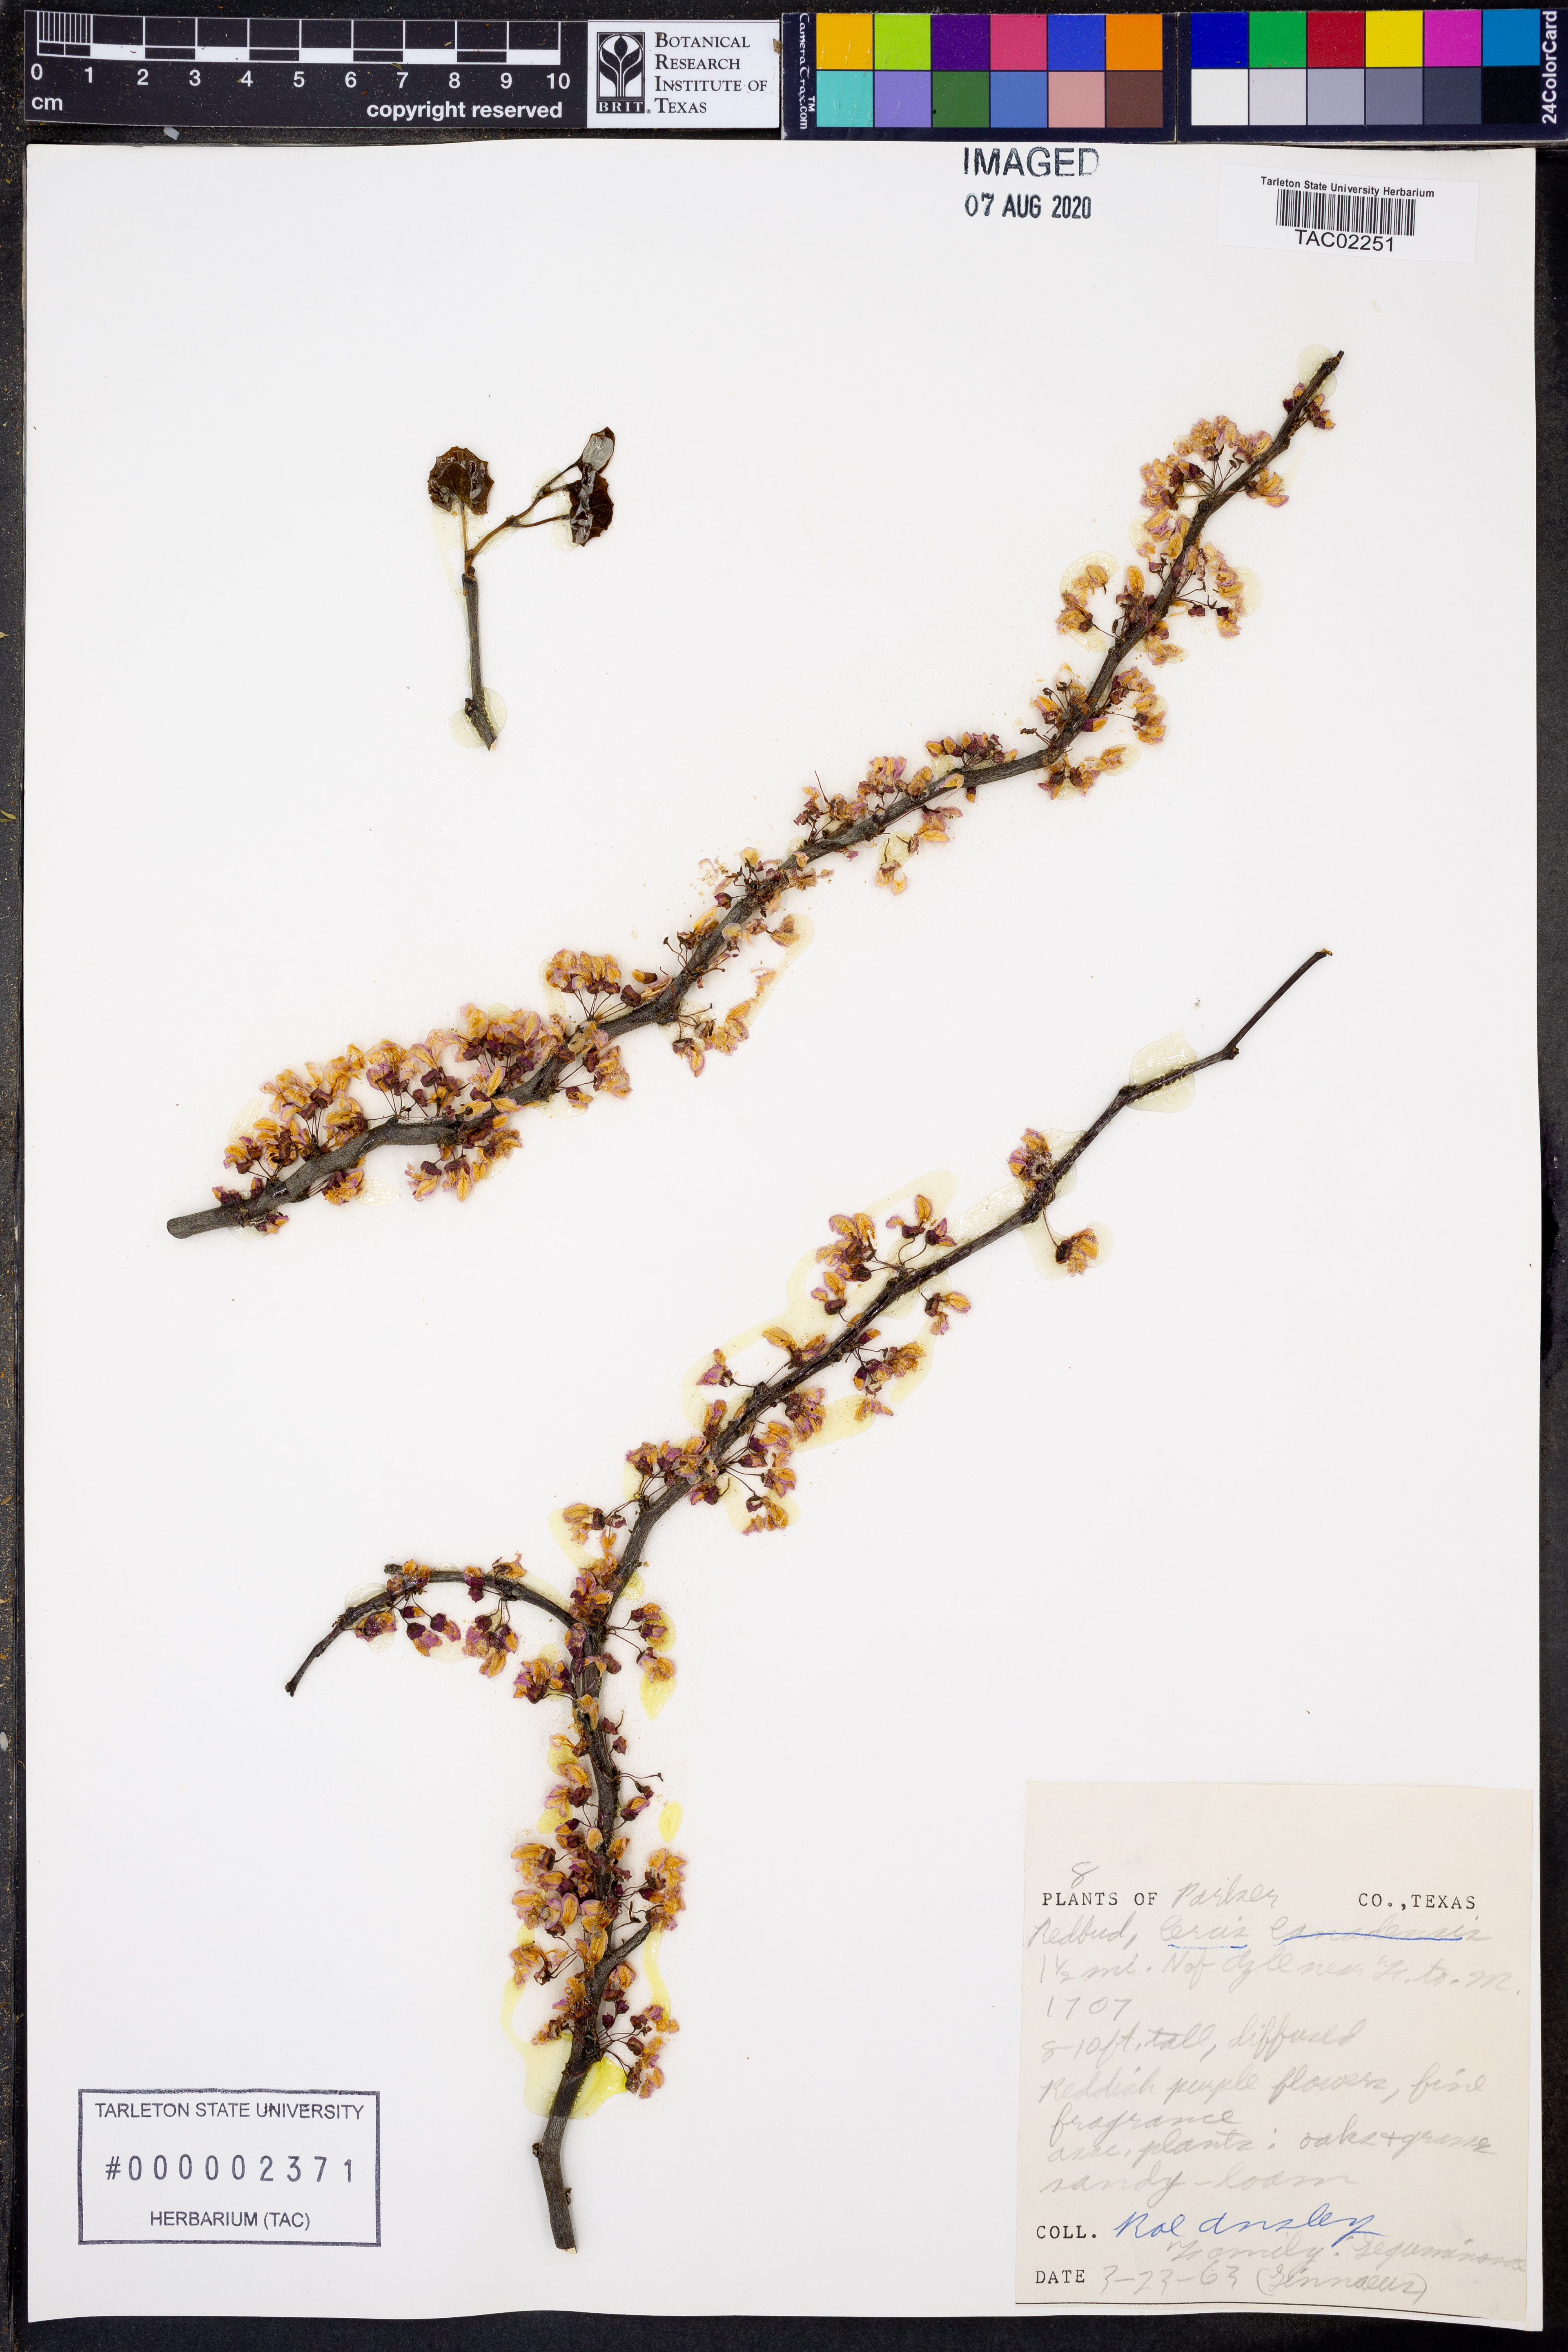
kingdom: Plantae
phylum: Tracheophyta
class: Magnoliopsida
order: Fabales
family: Fabaceae
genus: Cercis
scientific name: Cercis canadensis
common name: Eastern redbud
